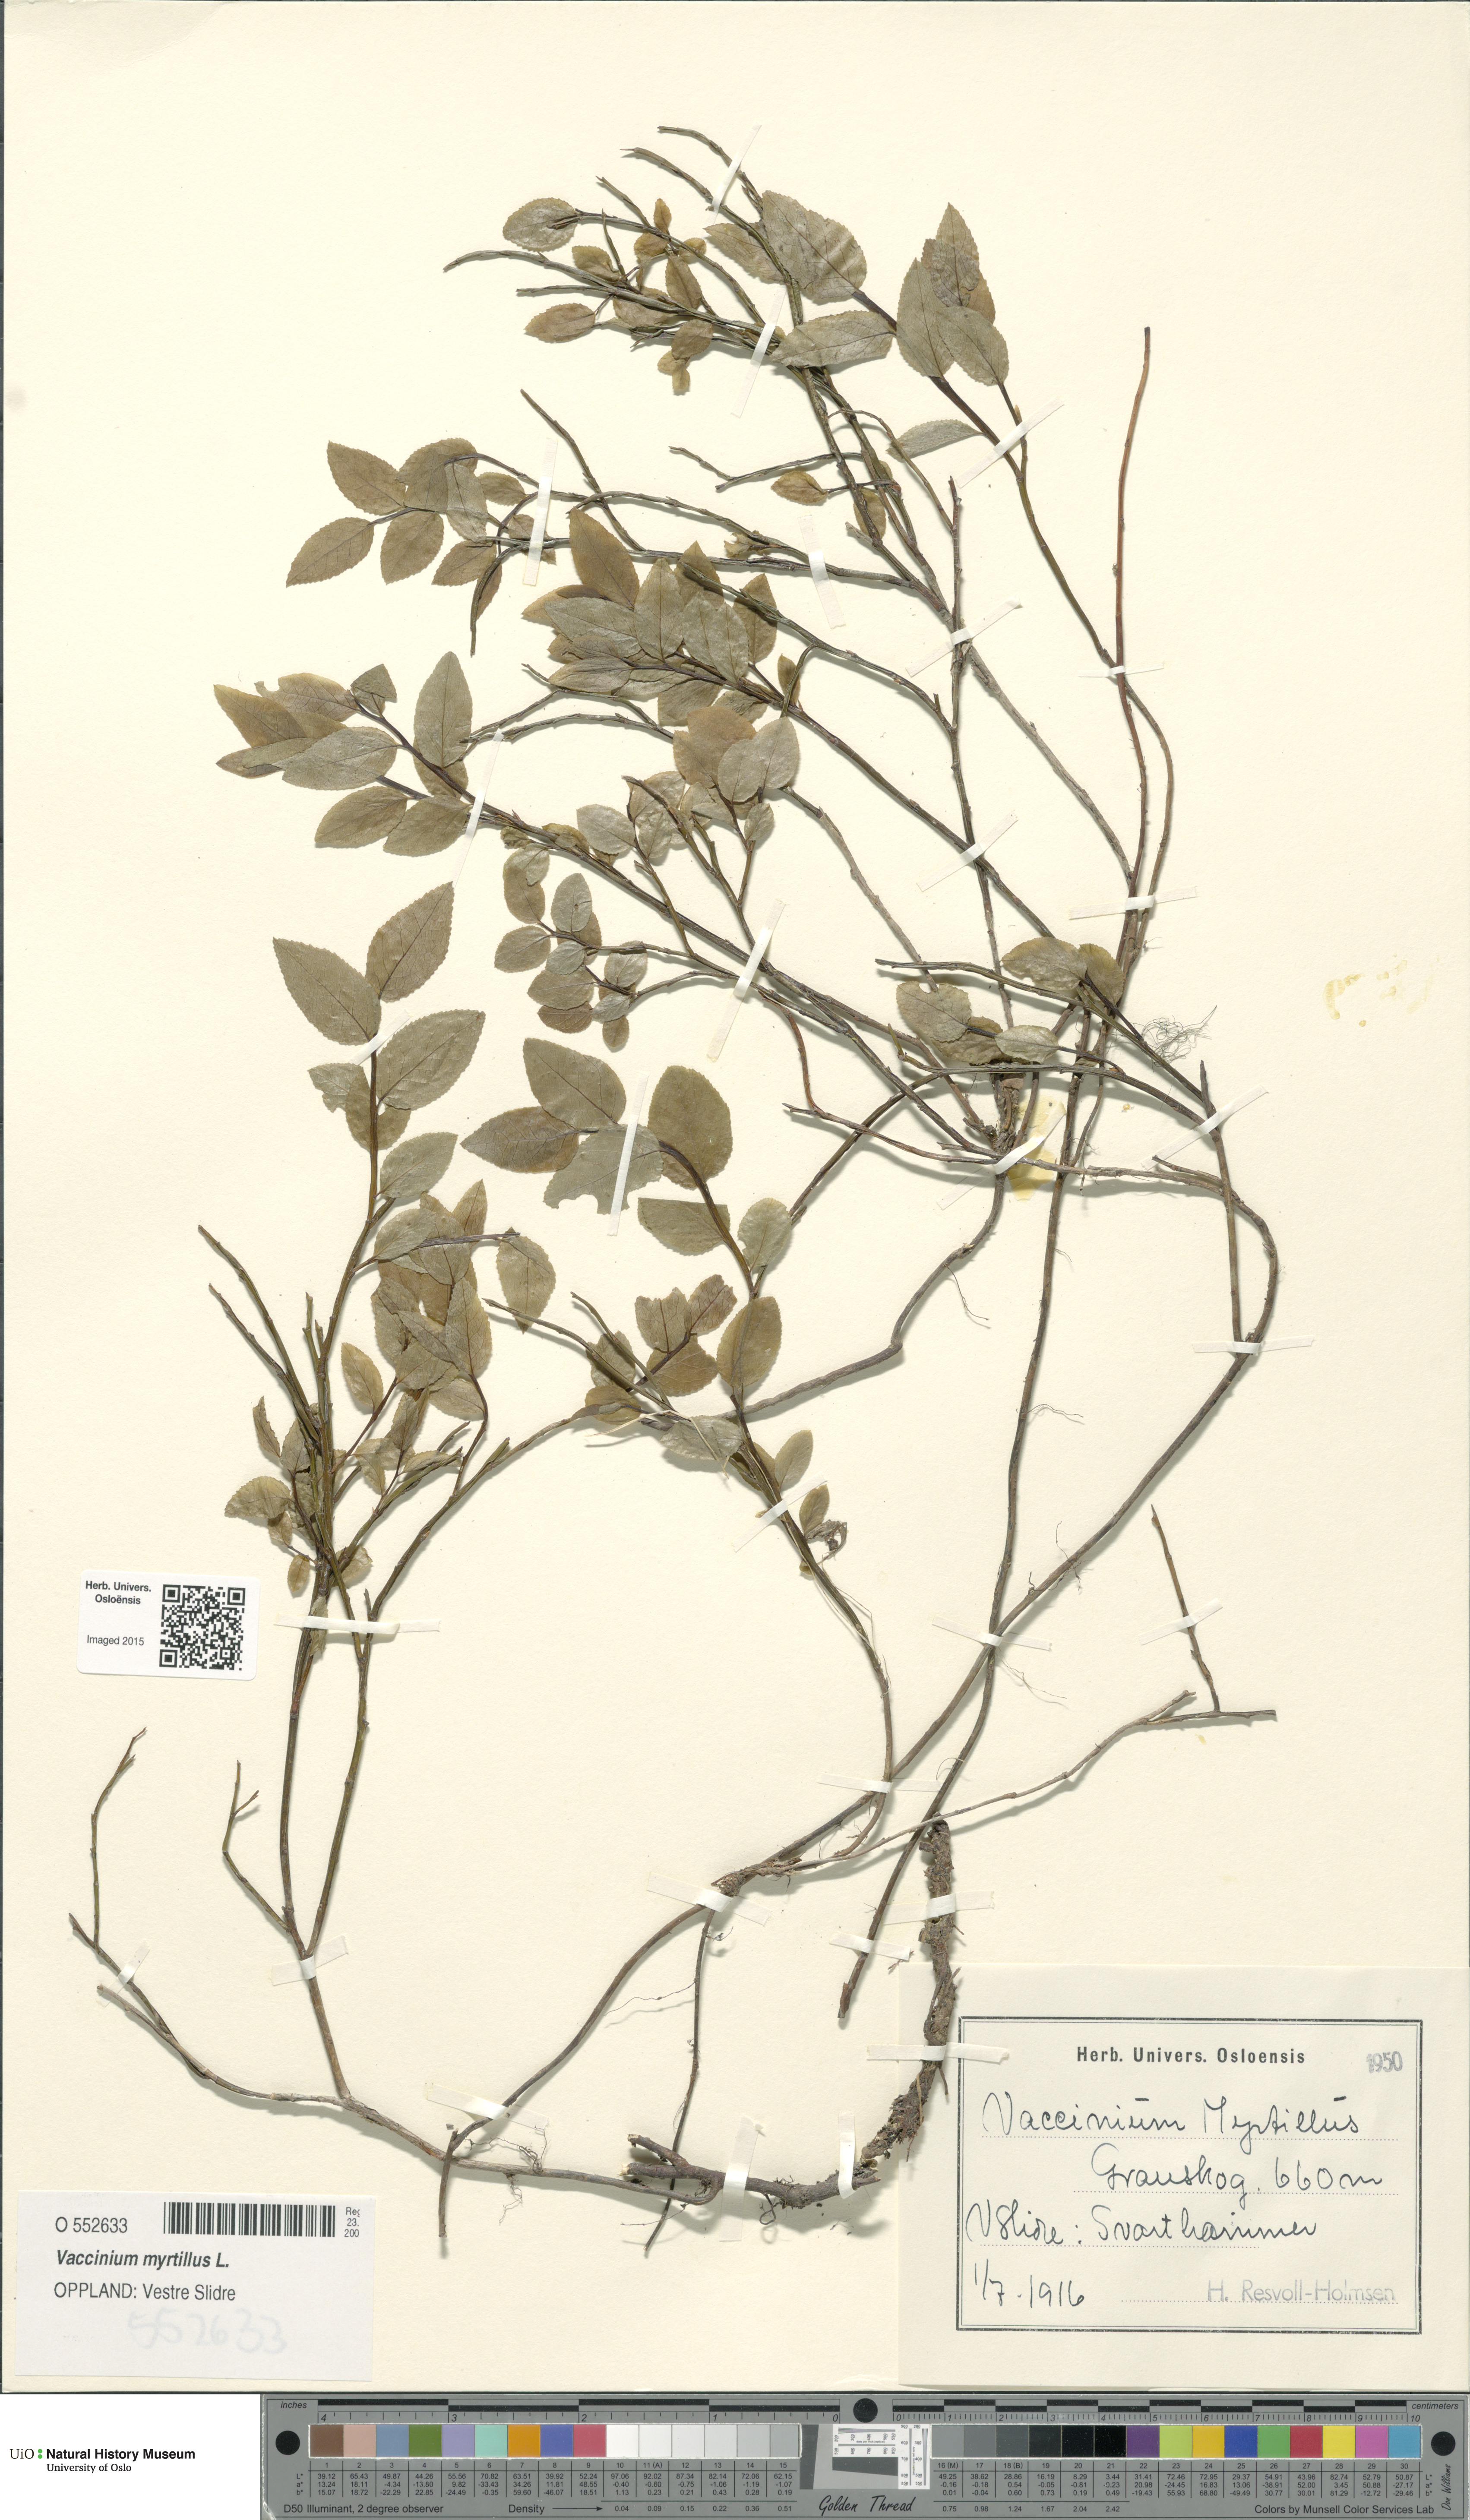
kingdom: Plantae
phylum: Tracheophyta
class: Magnoliopsida
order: Ericales
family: Ericaceae
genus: Vaccinium
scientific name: Vaccinium myrtillus
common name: Bilberry
